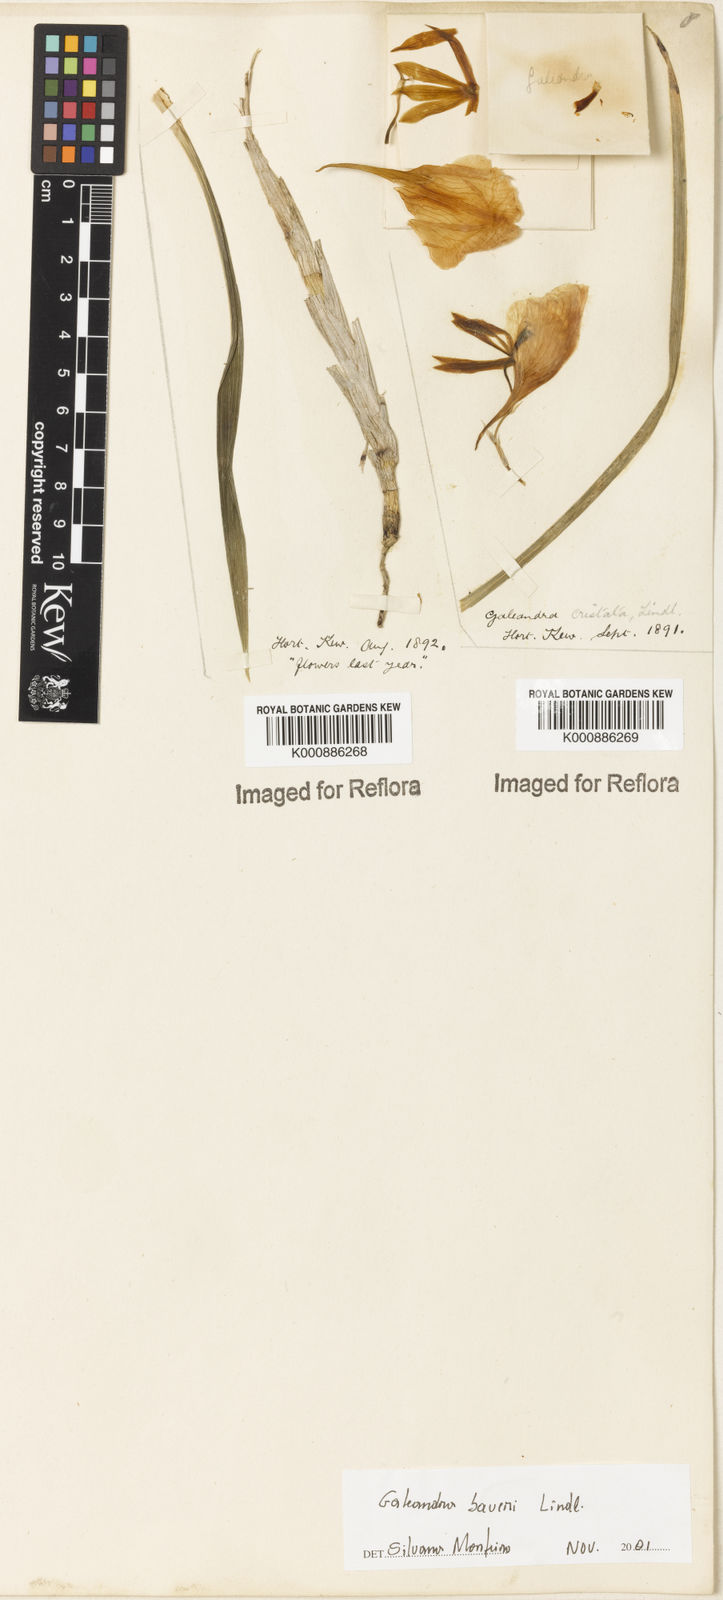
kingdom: Plantae
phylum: Tracheophyta
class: Liliopsida
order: Asparagales
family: Orchidaceae
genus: Galeandra
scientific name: Galeandra baueri
